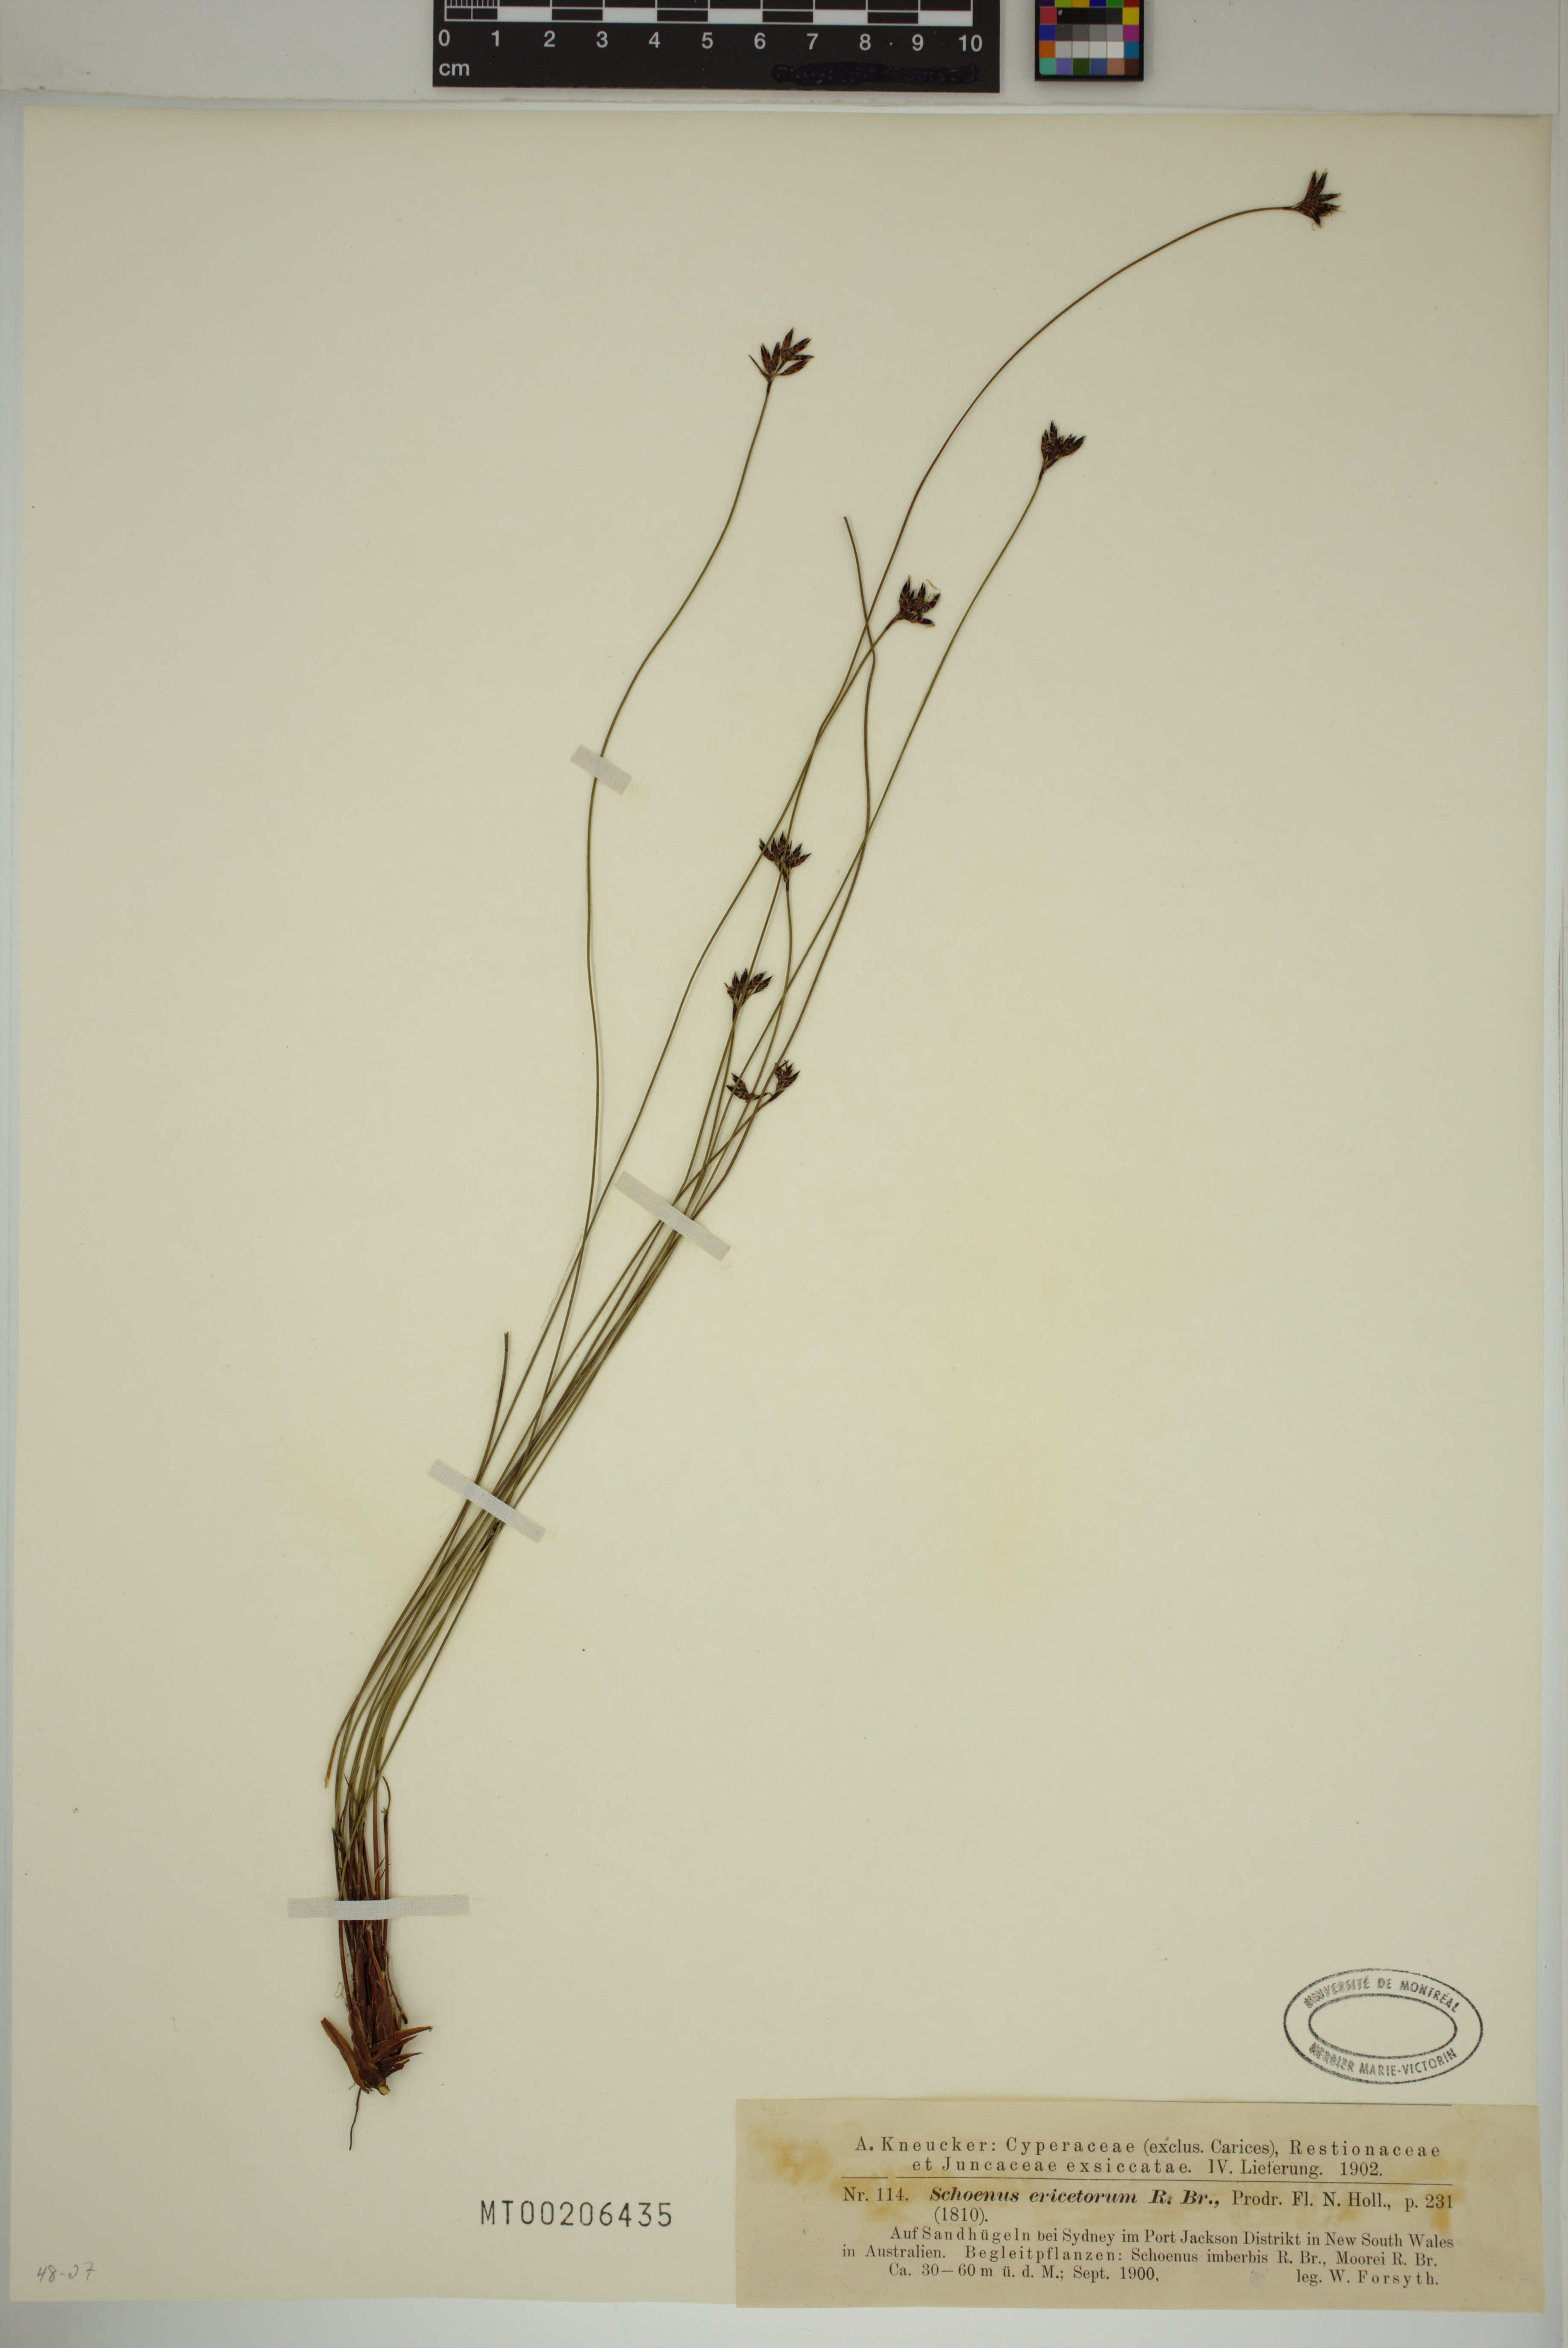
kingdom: Plantae
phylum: Tracheophyta
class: Liliopsida
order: Poales
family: Cyperaceae
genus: Schoenus
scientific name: Schoenus ericetorum
